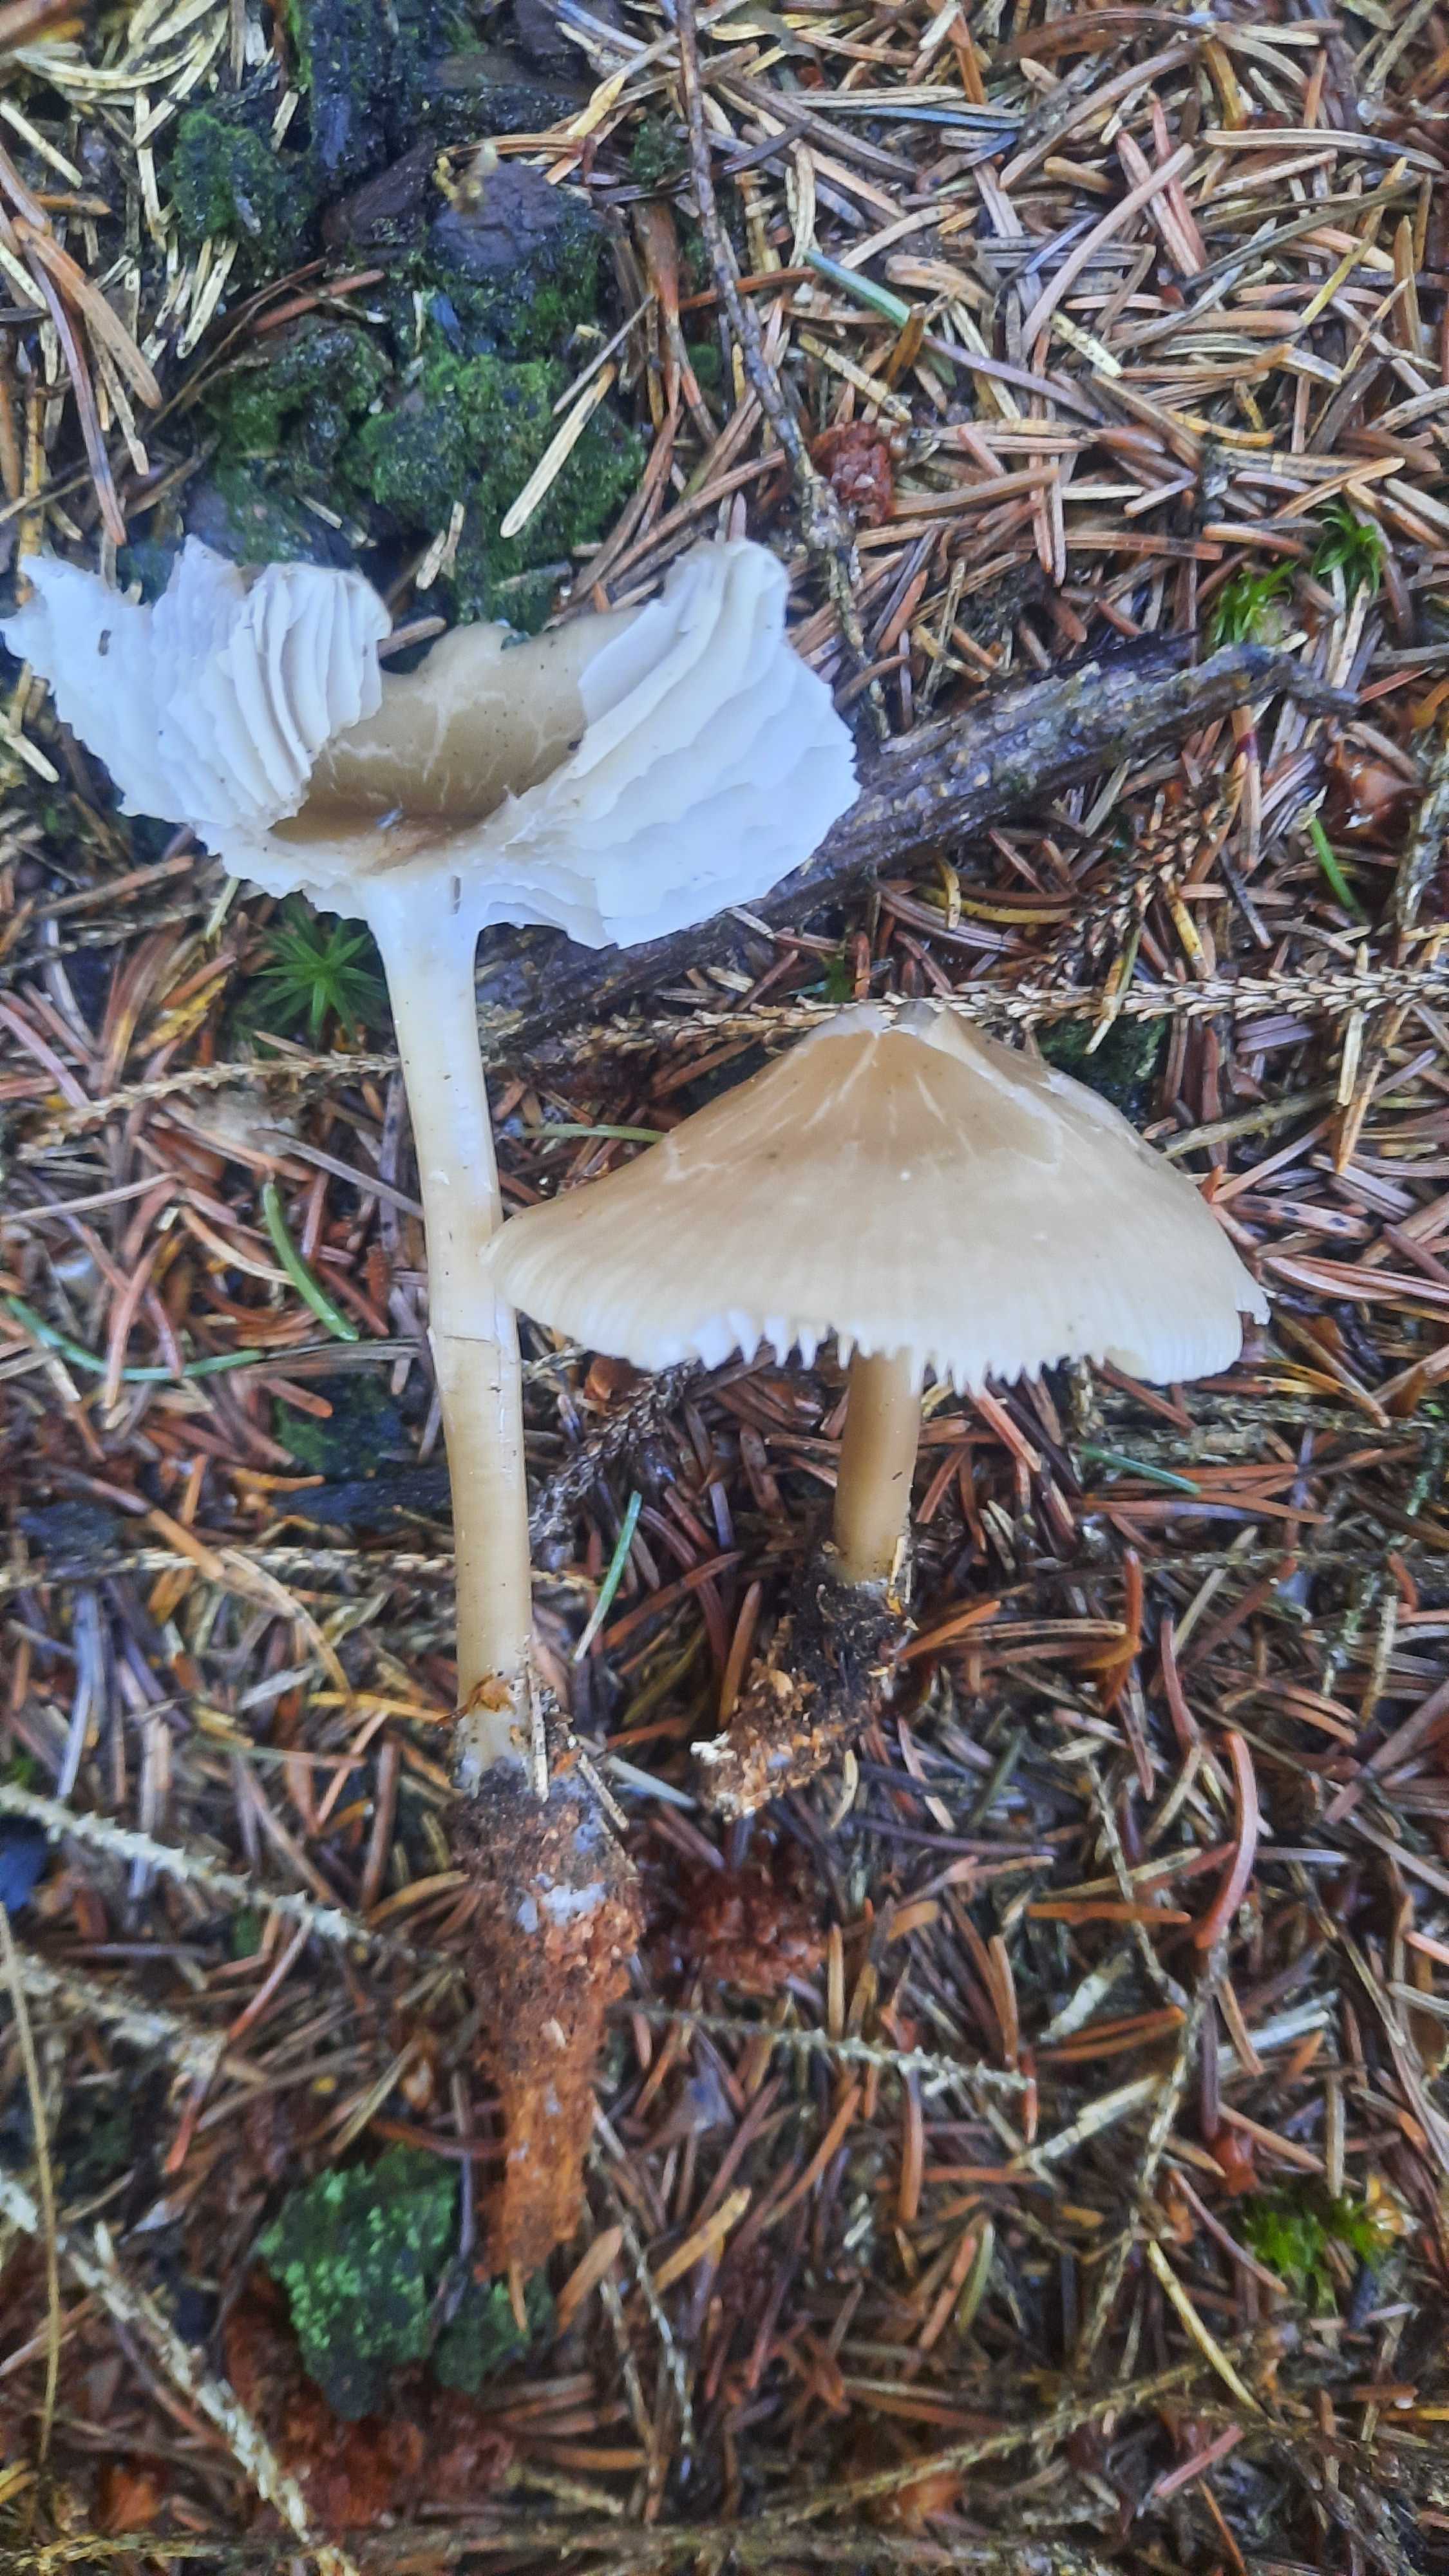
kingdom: Fungi
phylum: Basidiomycota
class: Agaricomycetes
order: Agaricales
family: Mycenaceae
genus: Mycena
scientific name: Mycena galericulata
